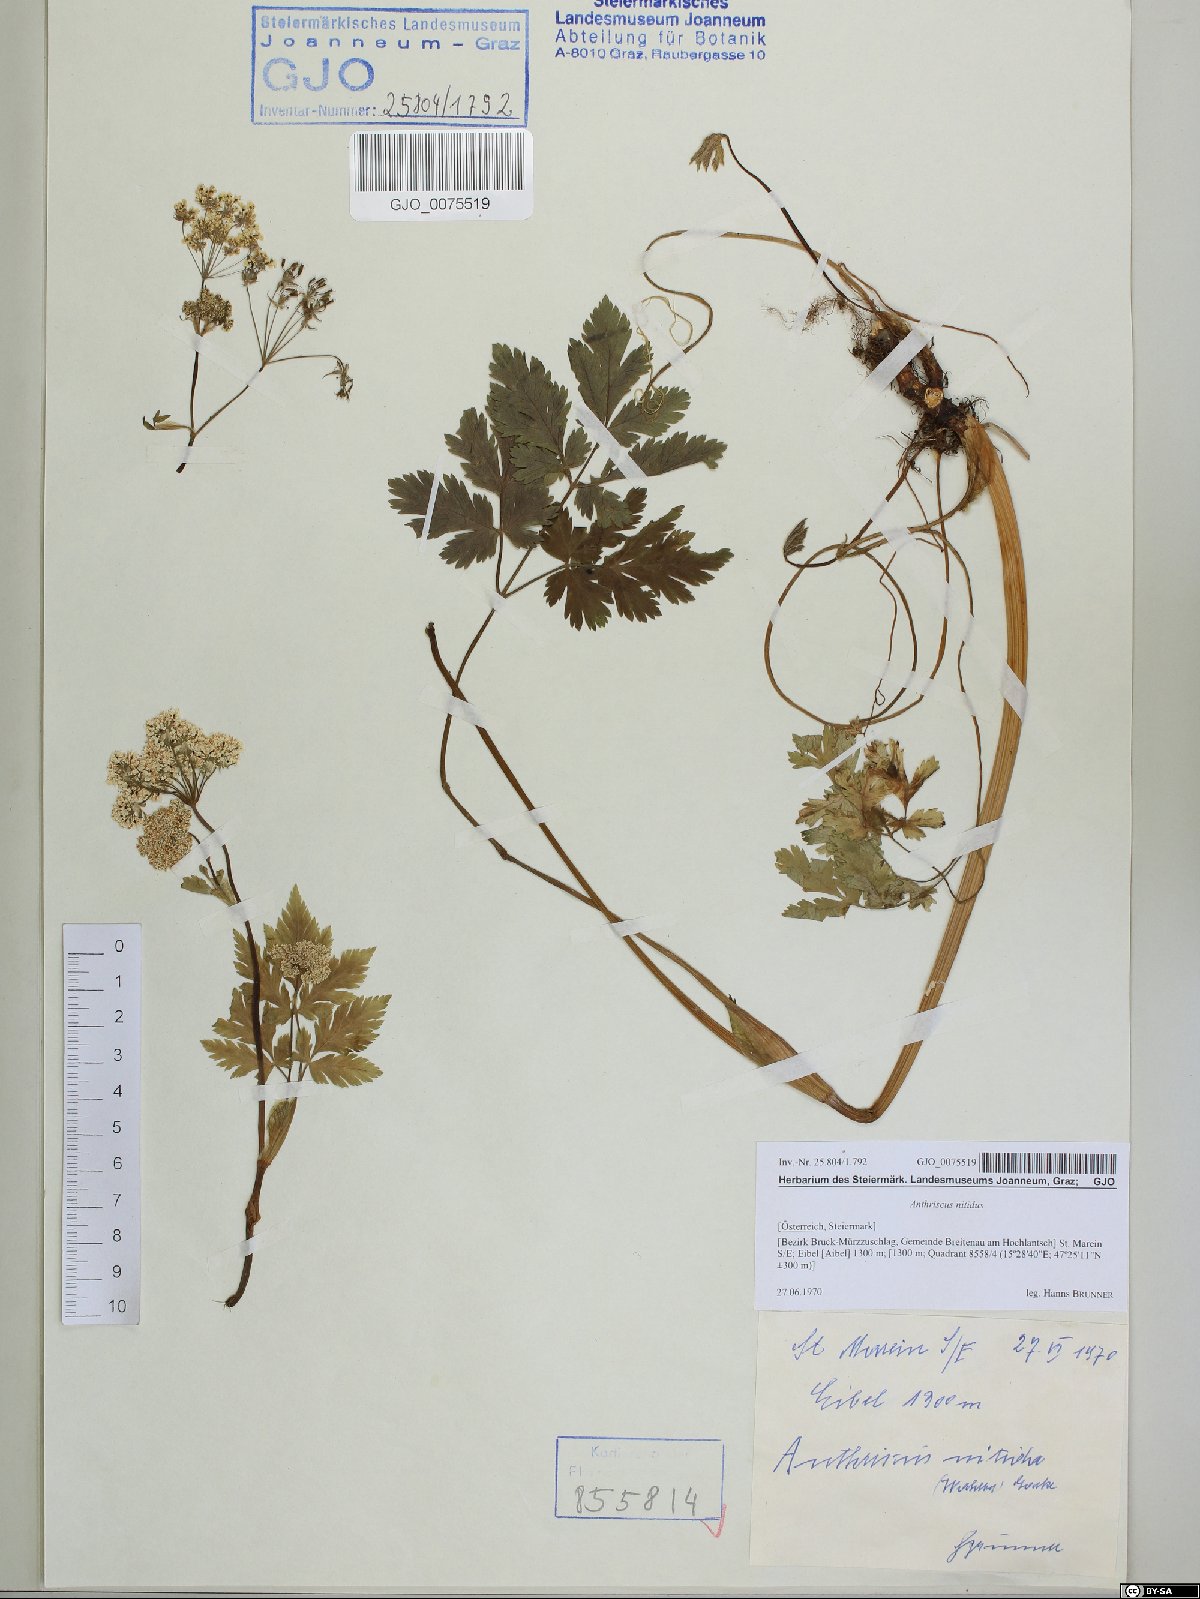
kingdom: Plantae
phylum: Tracheophyta
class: Magnoliopsida
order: Apiales
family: Apiaceae
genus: Anthriscus
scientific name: Anthriscus nitida
